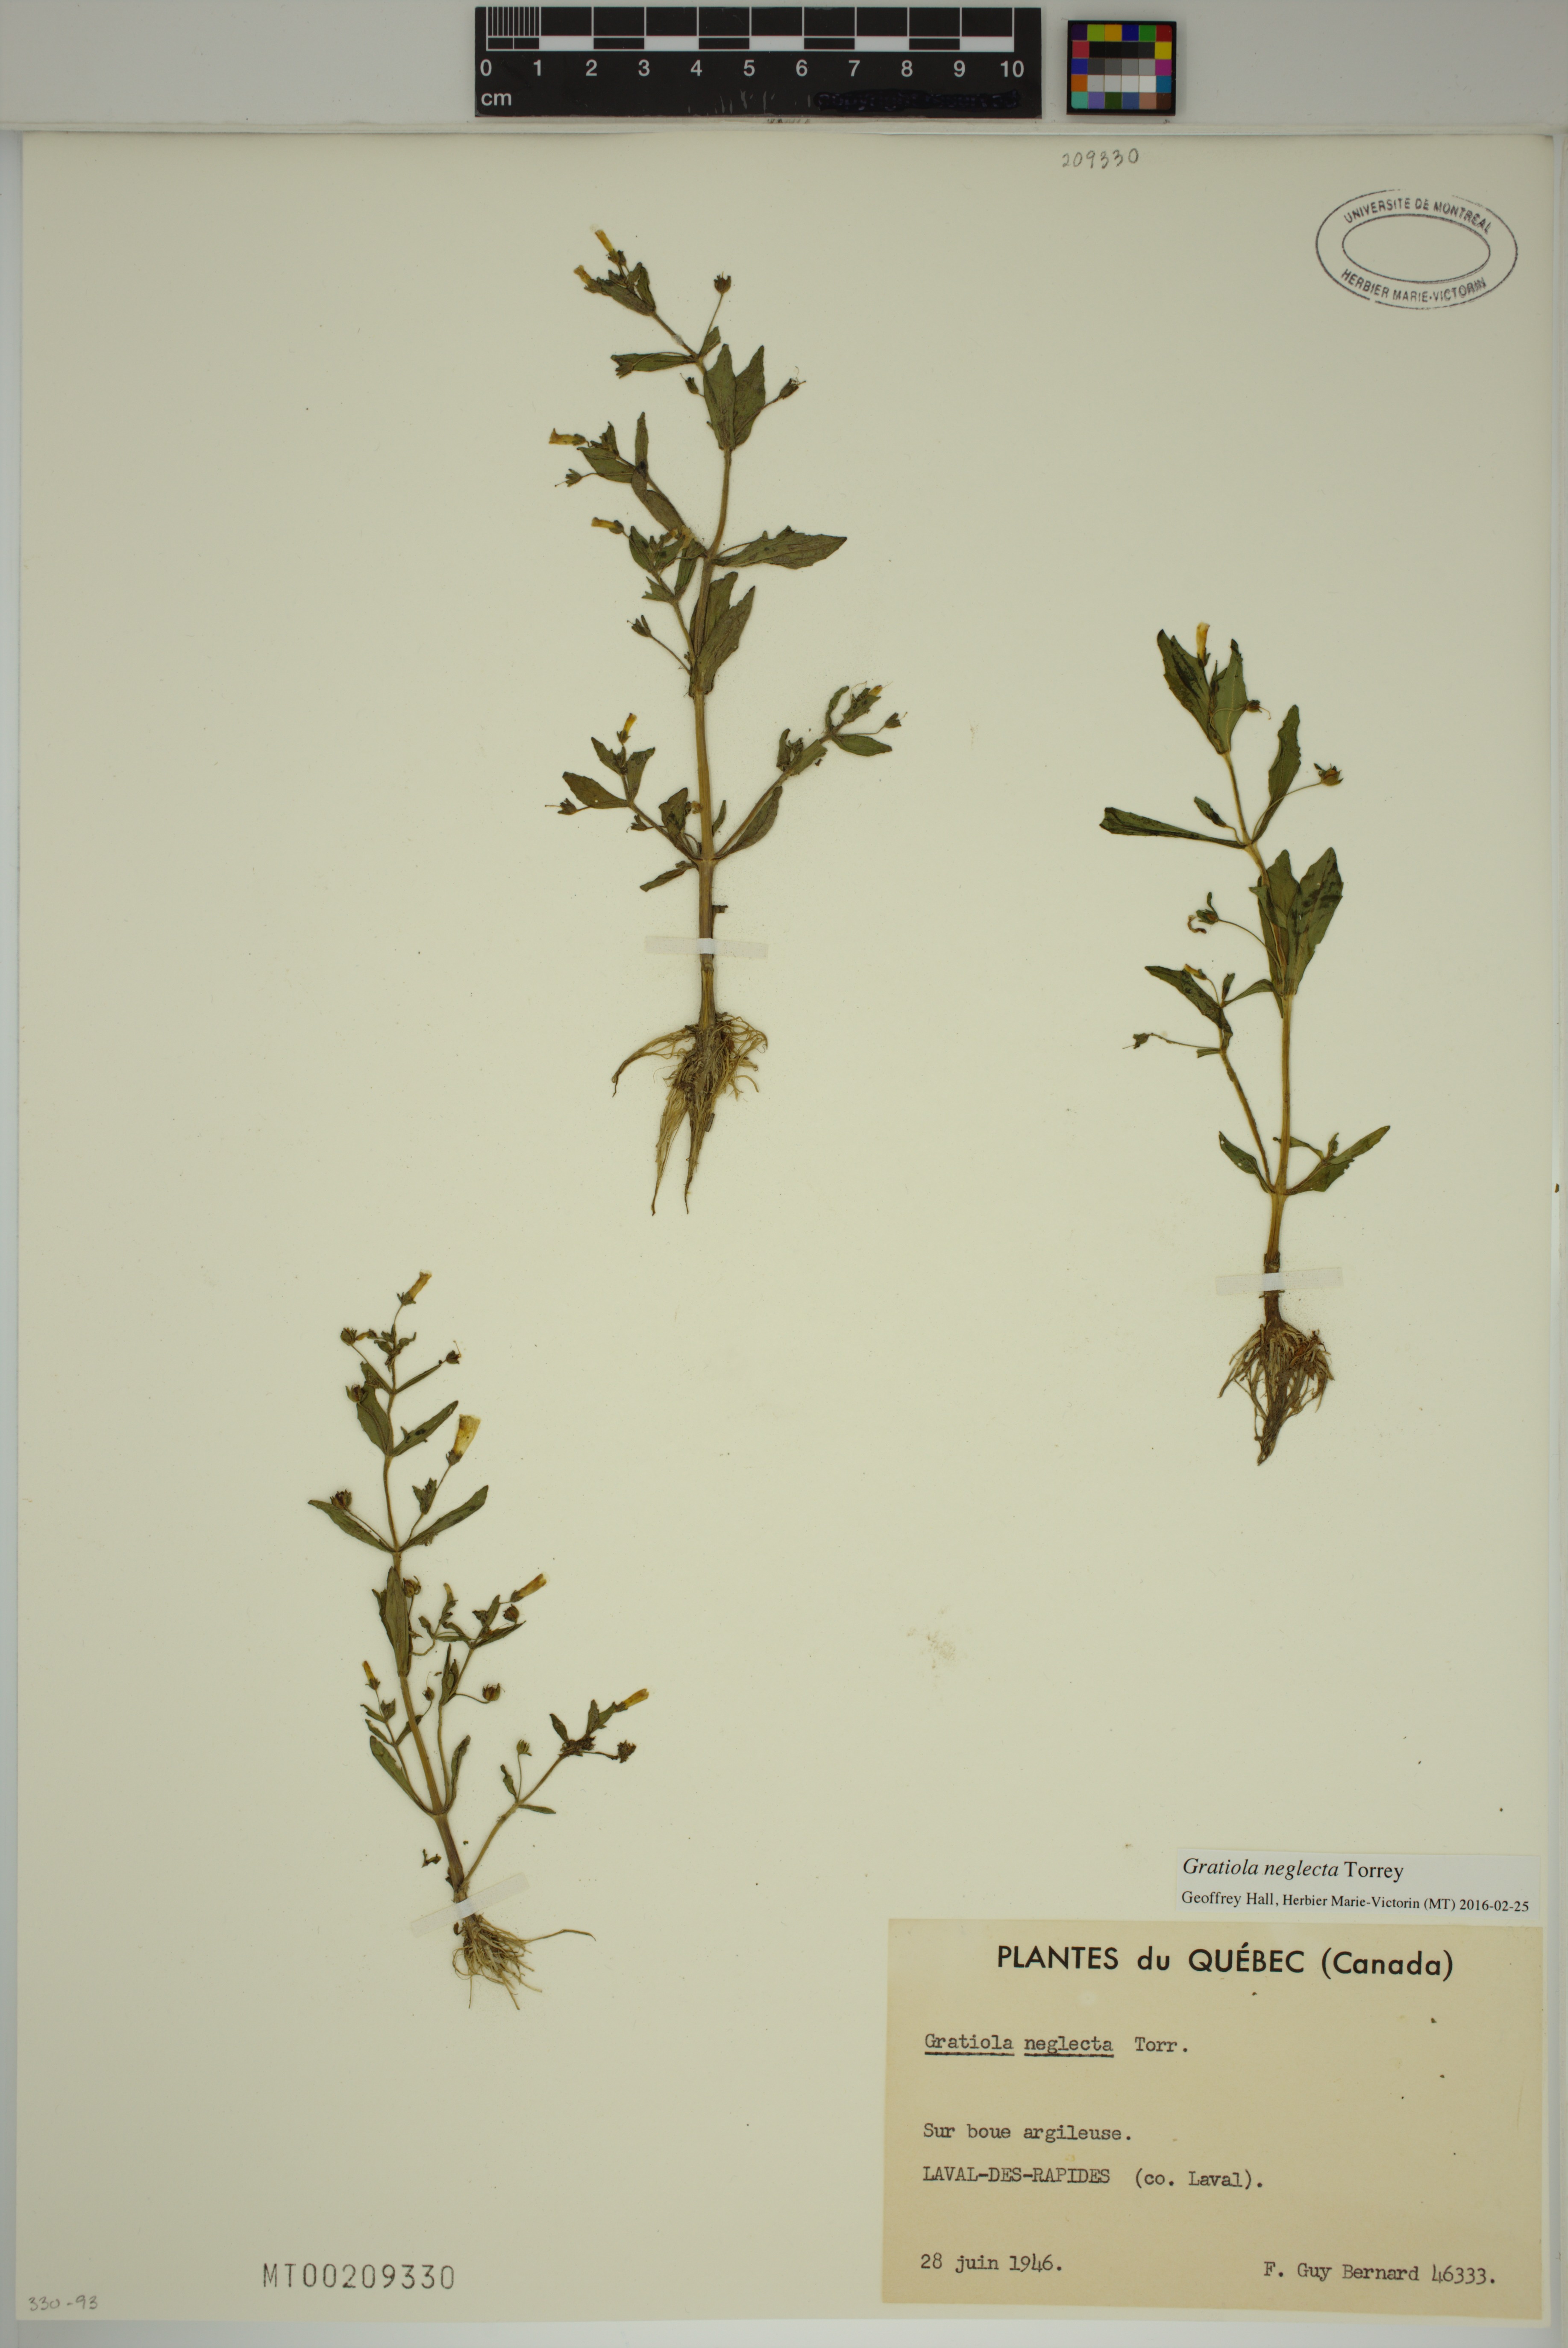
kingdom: Plantae
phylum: Tracheophyta
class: Magnoliopsida
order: Lamiales
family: Plantaginaceae
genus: Gratiola
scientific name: Gratiola neglecta
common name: American hedge-hyssop
